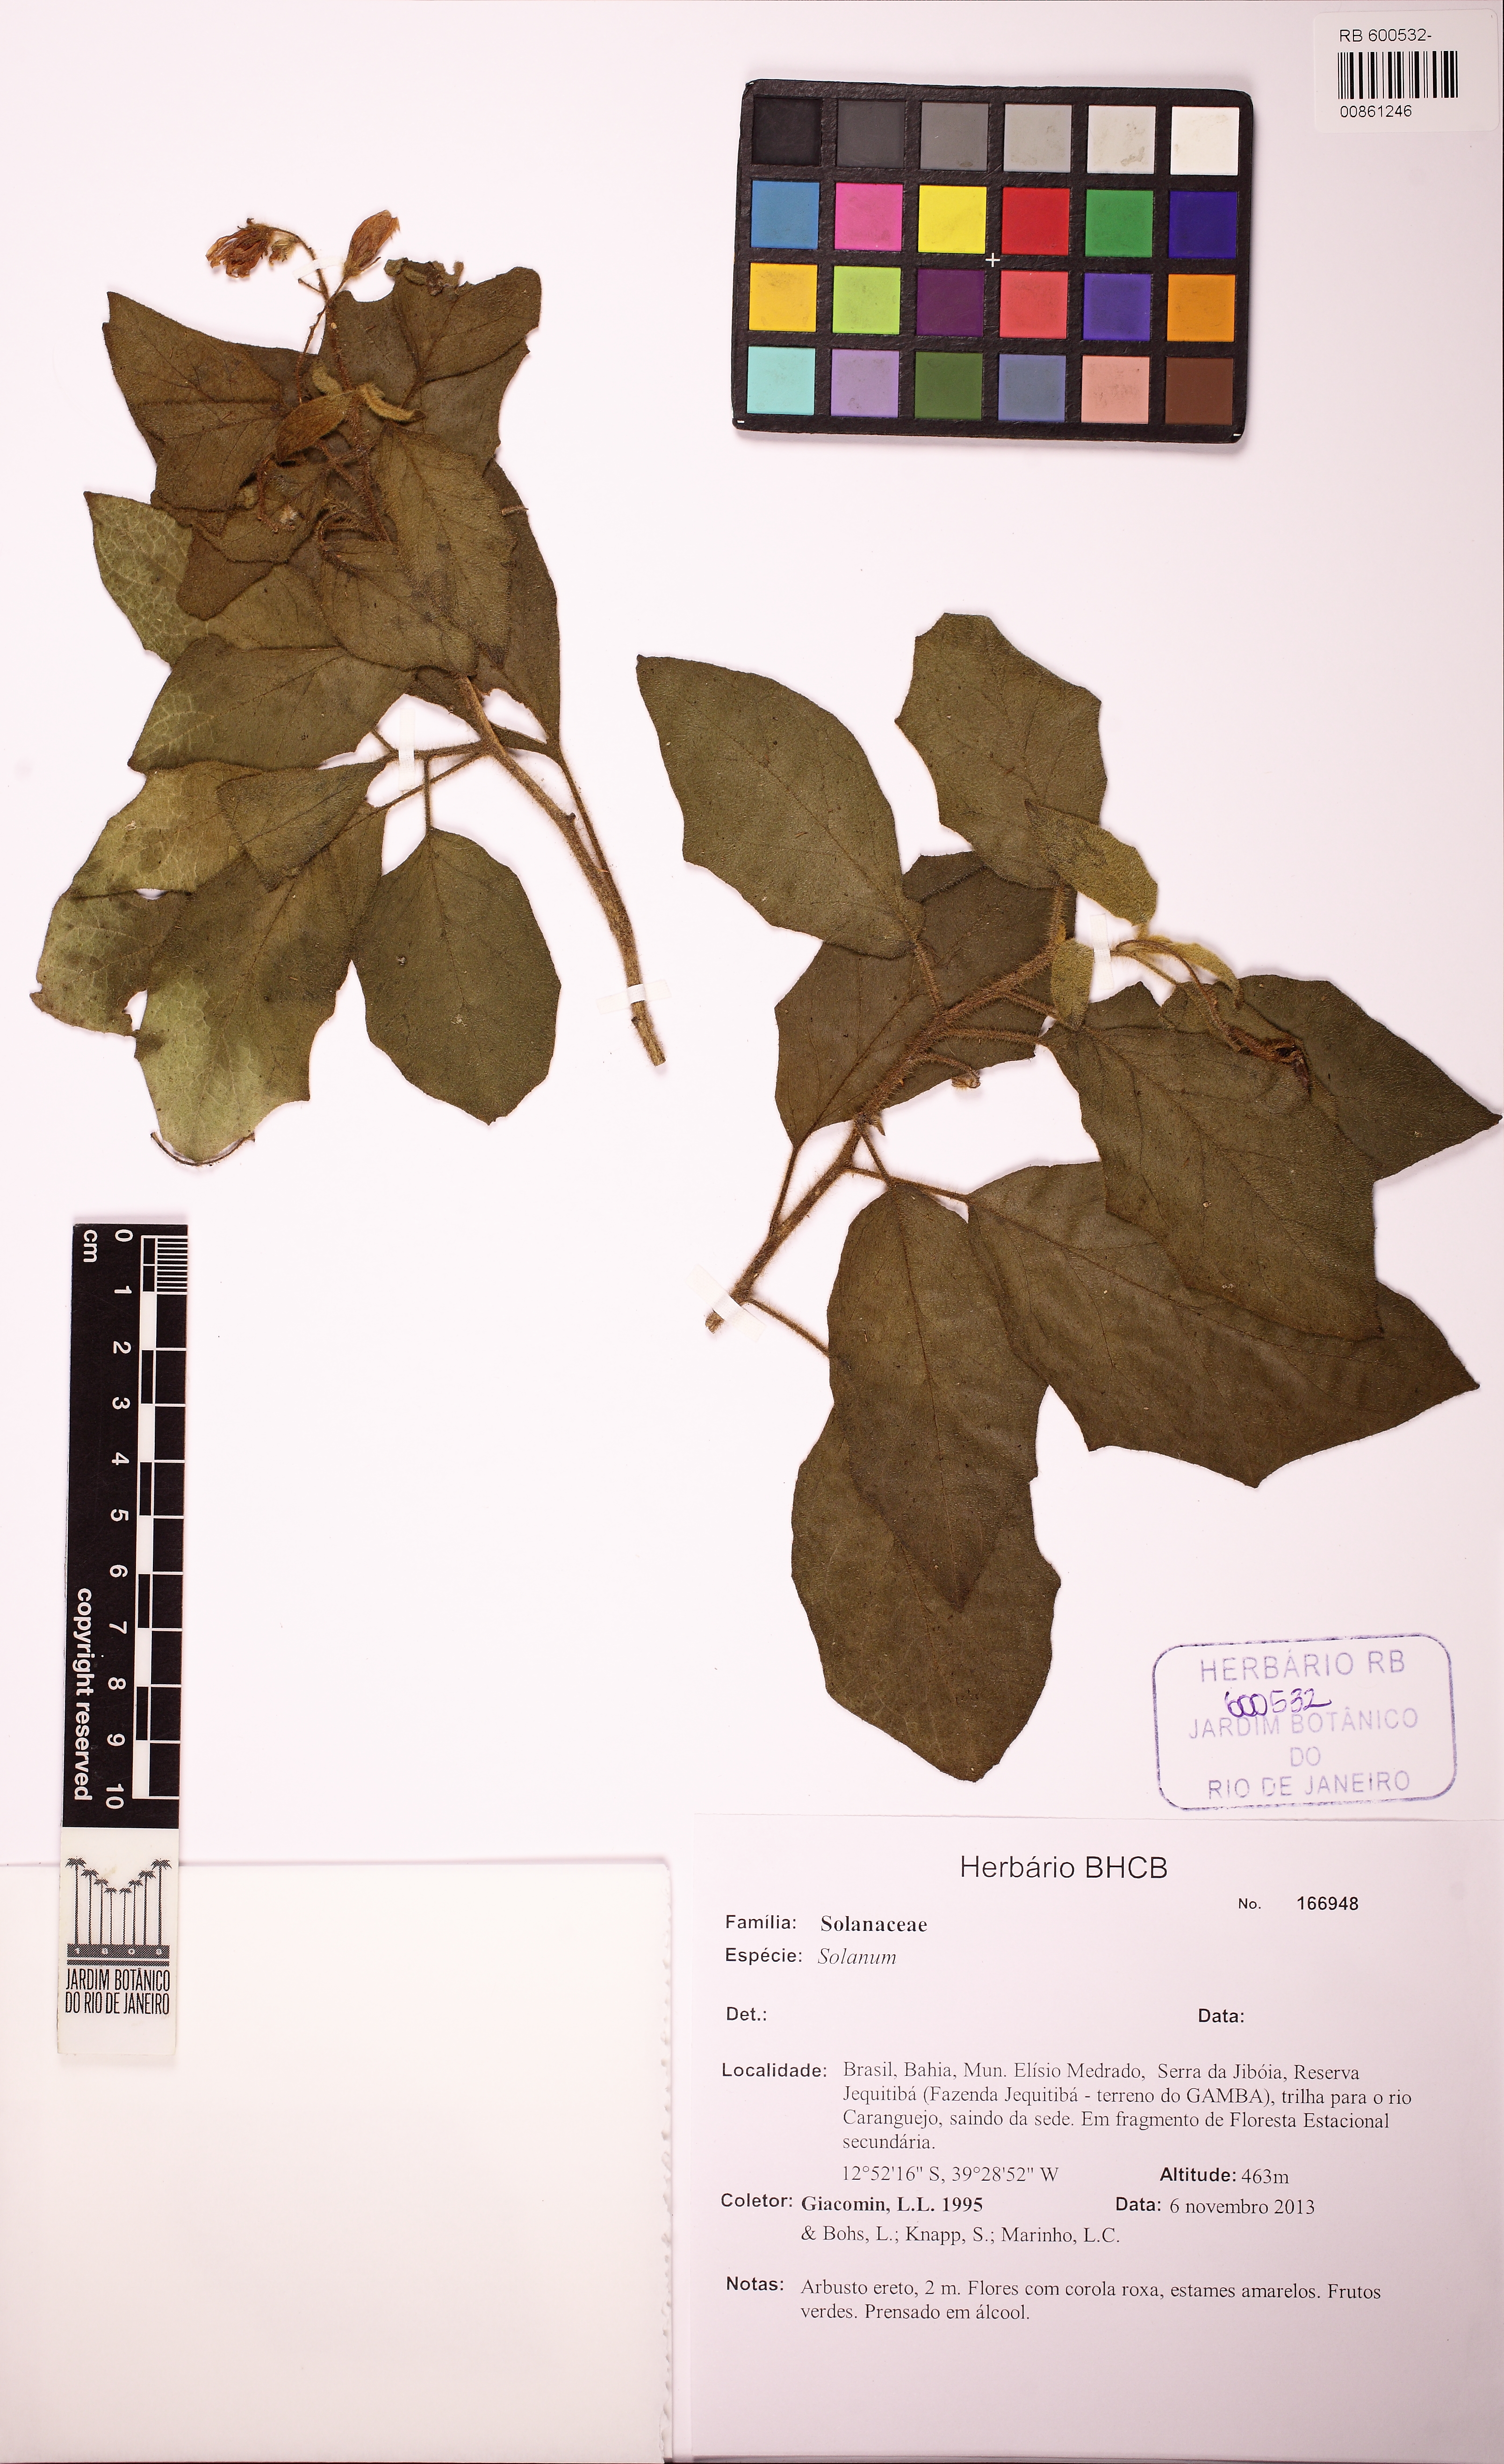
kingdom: Plantae
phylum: Tracheophyta
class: Magnoliopsida
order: Solanales
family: Solanaceae
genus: Solanum
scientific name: Solanum
